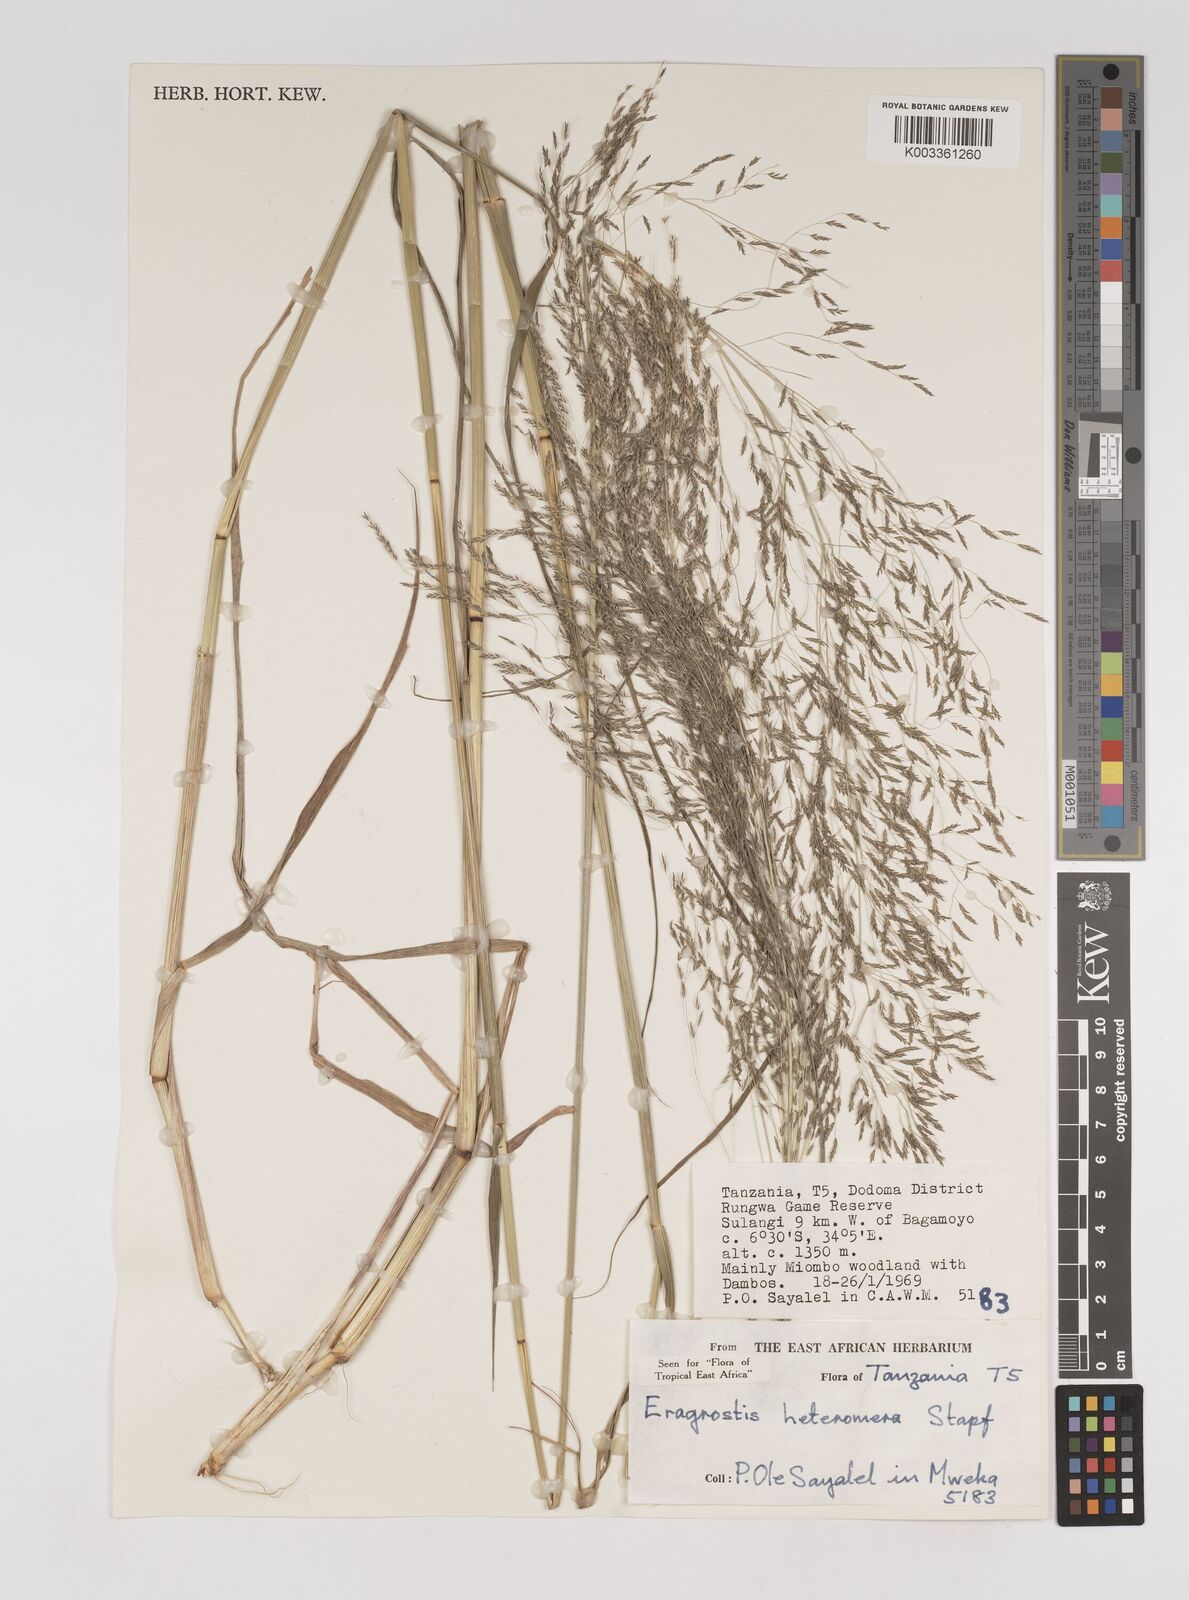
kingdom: Plantae
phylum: Tracheophyta
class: Liliopsida
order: Poales
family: Poaceae
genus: Eragrostis
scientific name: Eragrostis heteromera
